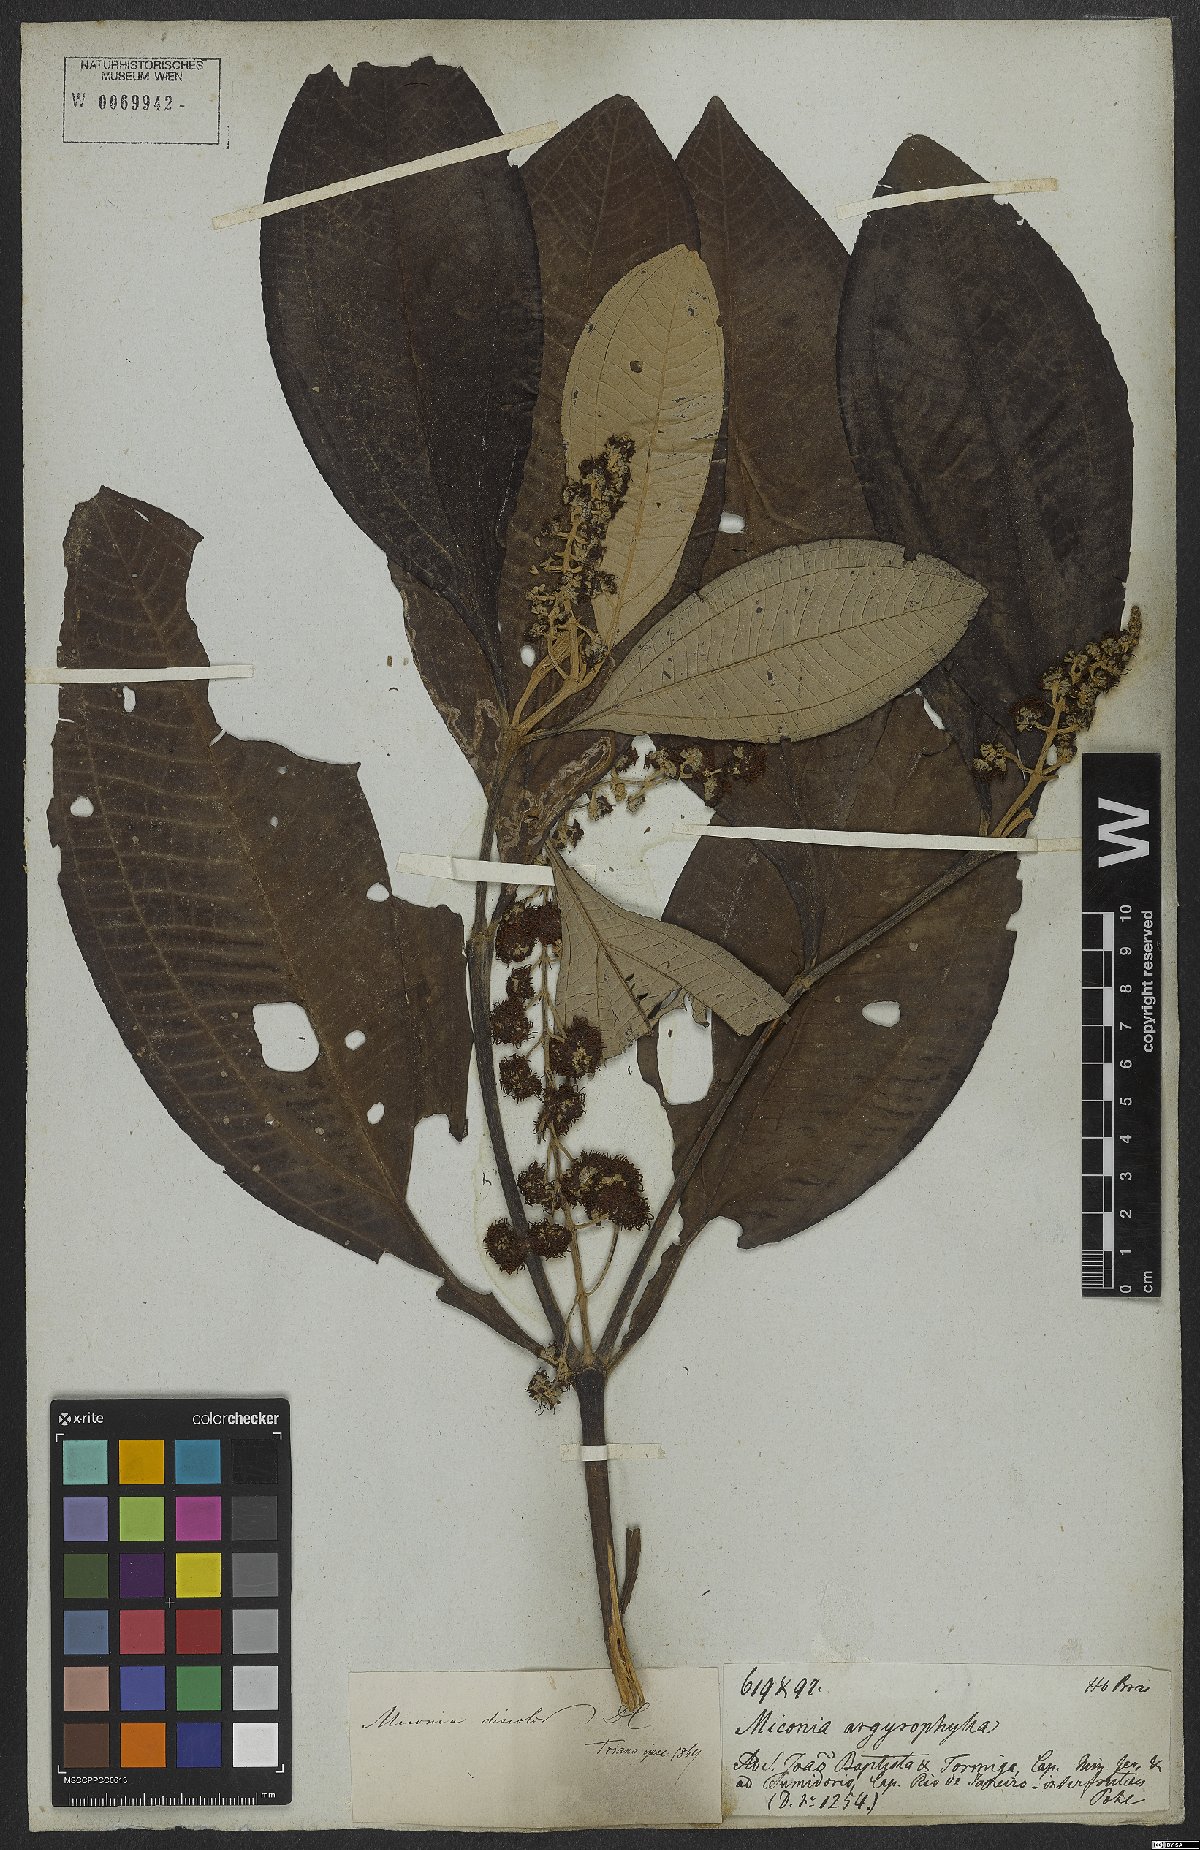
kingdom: Plantae
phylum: Tracheophyta
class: Magnoliopsida
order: Myrtales
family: Melastomataceae
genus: Miconia
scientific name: Miconia discolor
